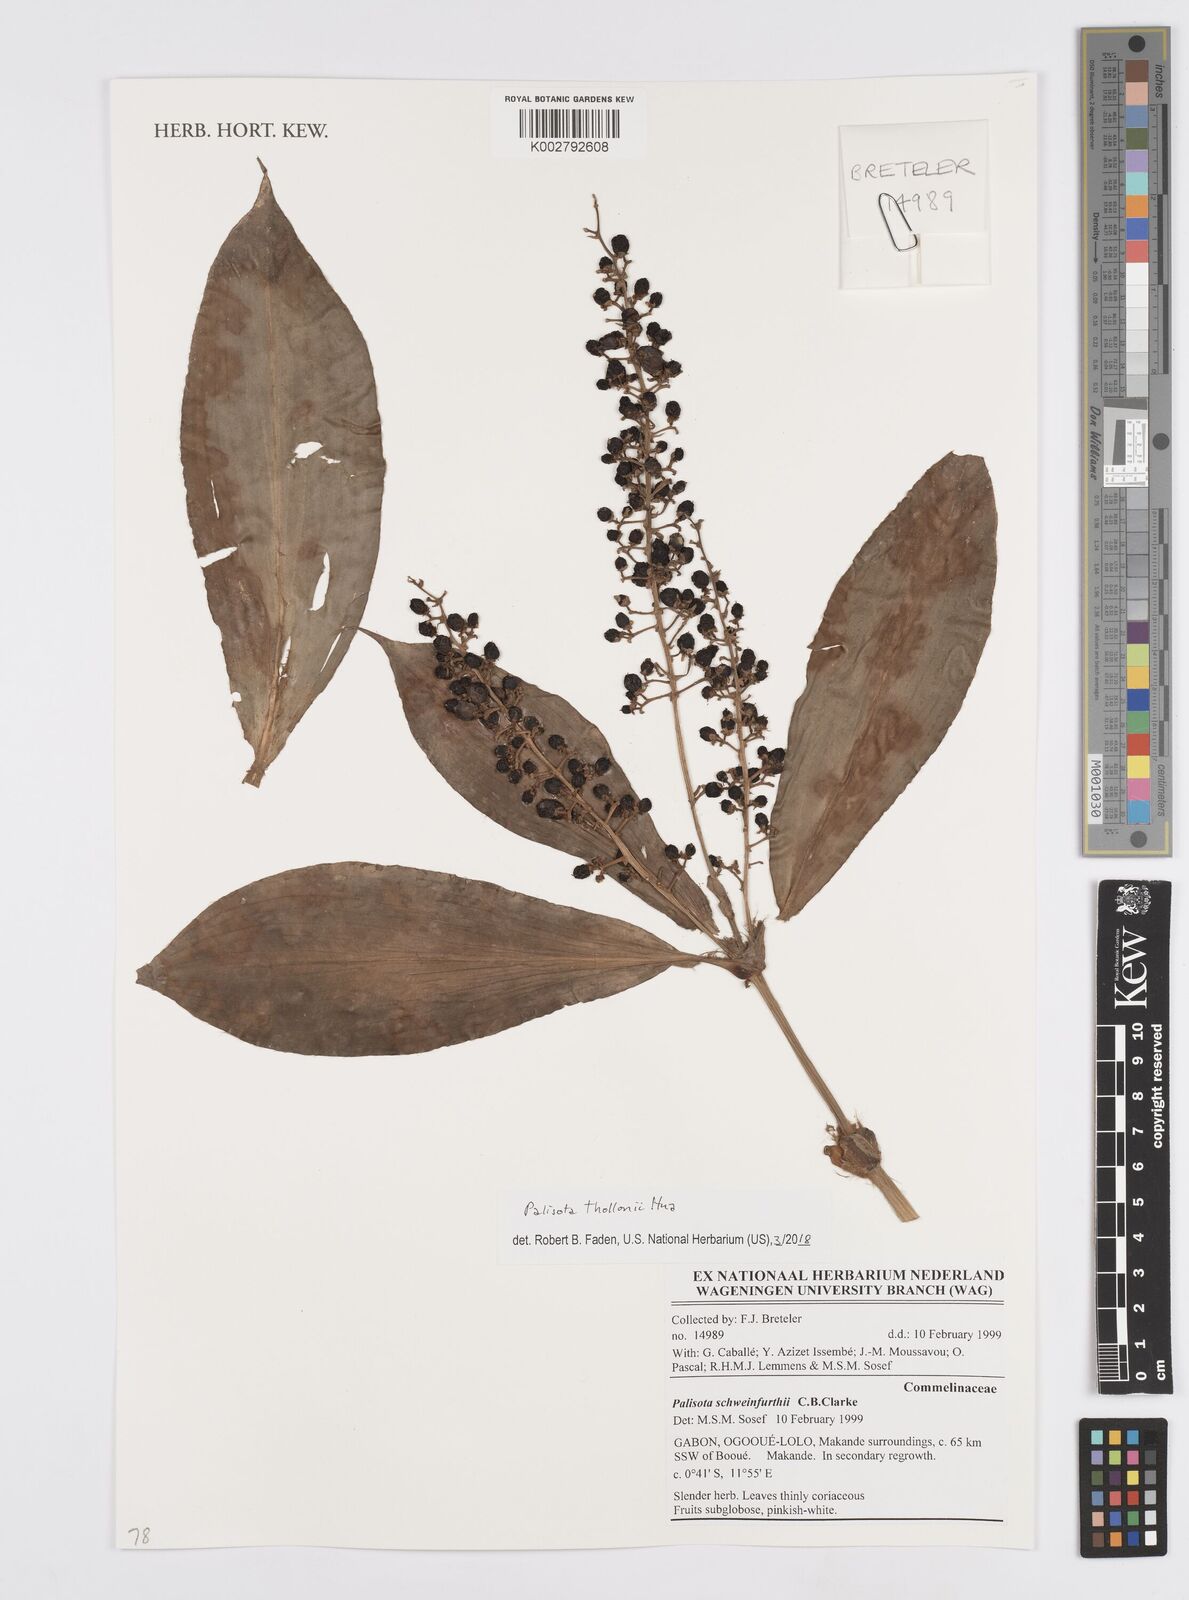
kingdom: Plantae
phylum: Tracheophyta
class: Liliopsida
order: Commelinales
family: Commelinaceae
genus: Palisota
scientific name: Palisota thollonii
